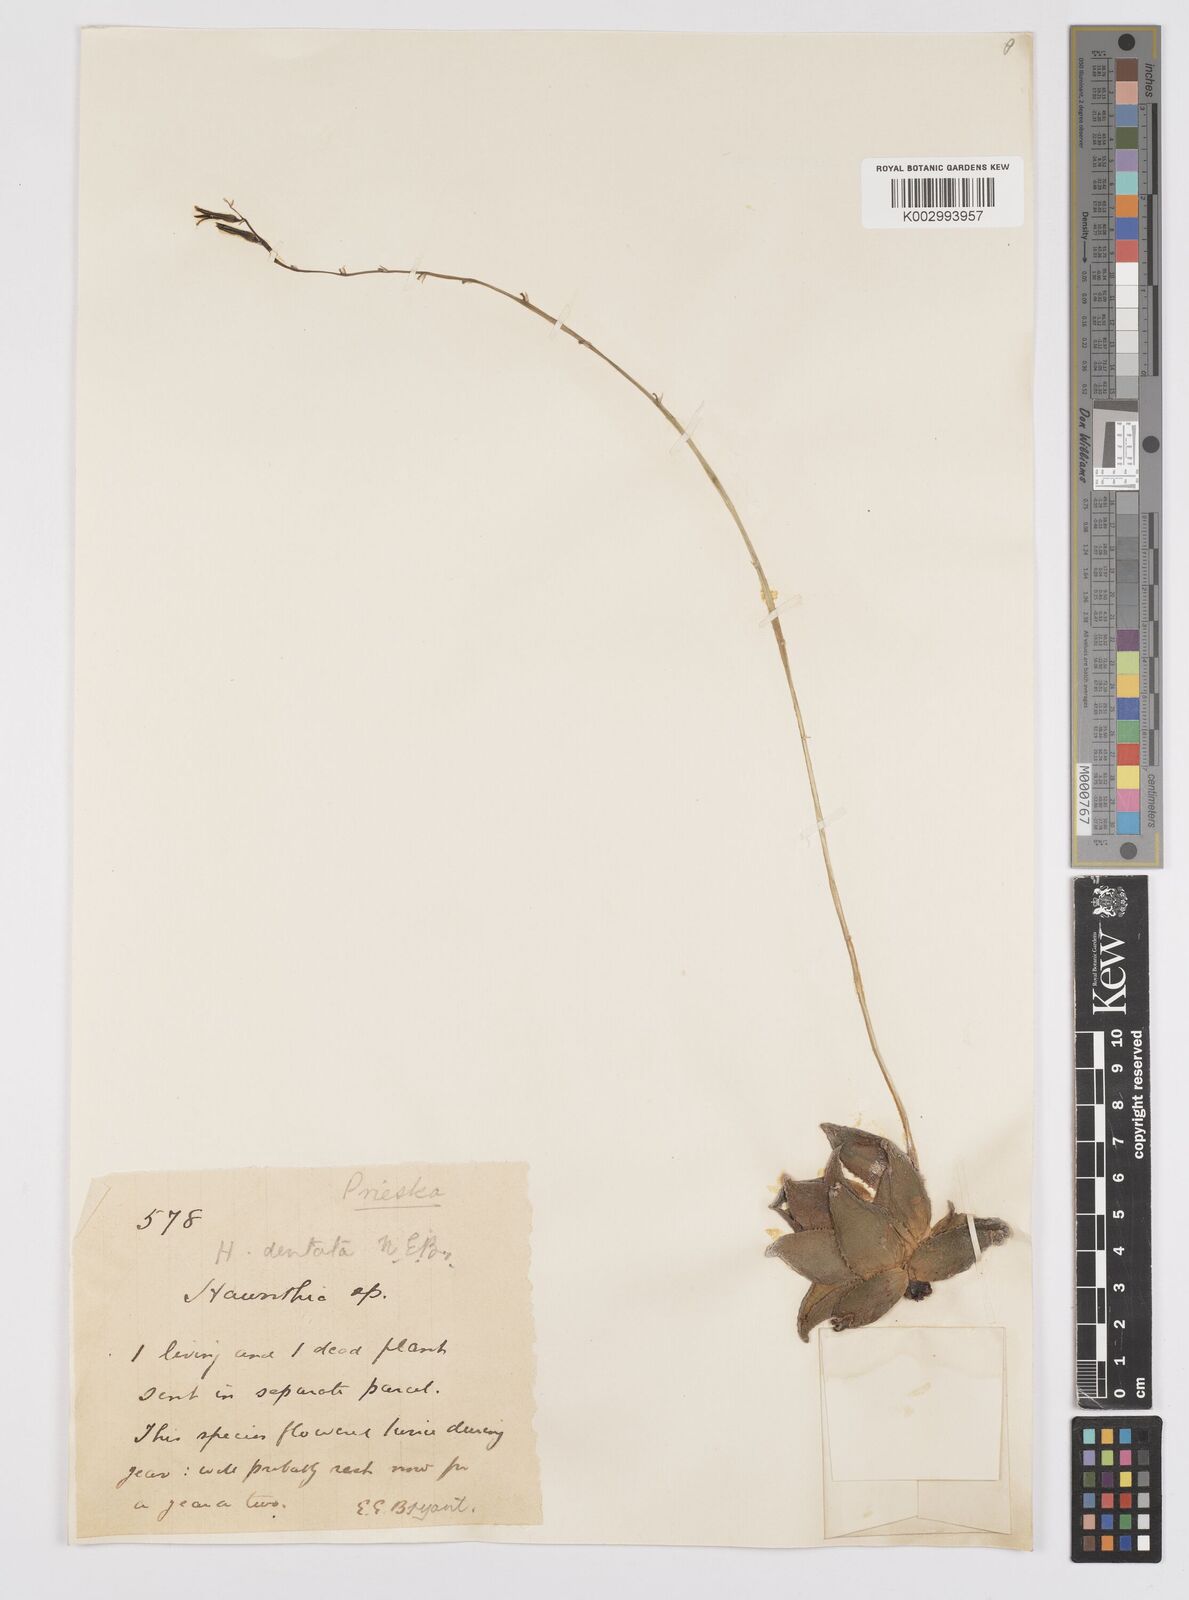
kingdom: Plantae
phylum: Tracheophyta
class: Liliopsida
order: Asparagales
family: Asphodelaceae
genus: Haworthia
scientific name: Haworthia floribunda
